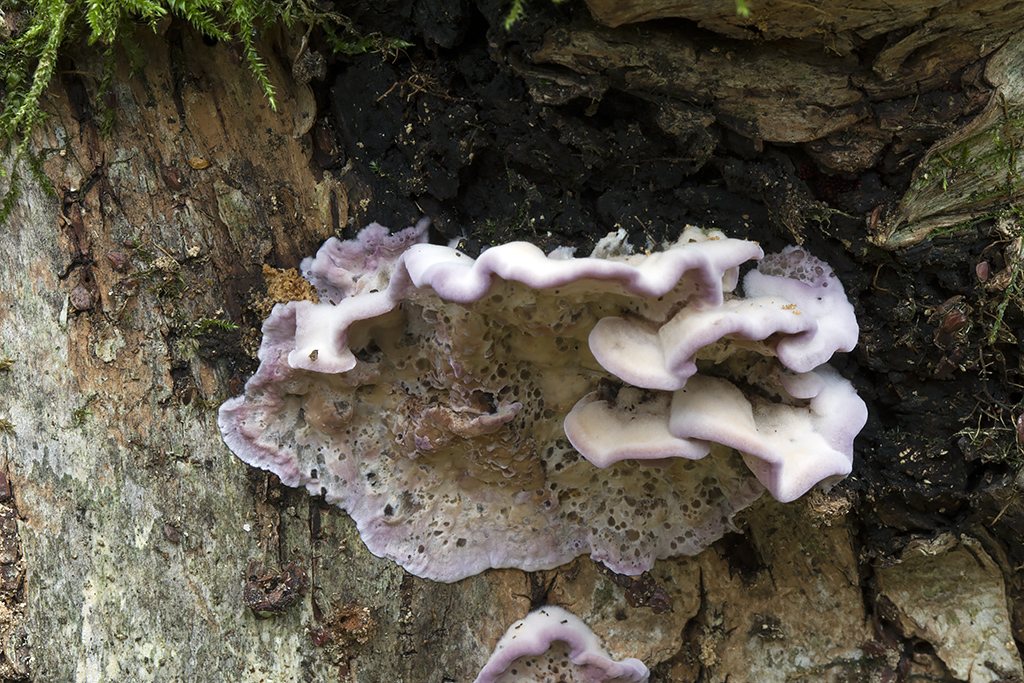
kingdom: Fungi
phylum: Basidiomycota
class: Agaricomycetes
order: Agaricales
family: Cyphellaceae
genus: Chondrostereum
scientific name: Chondrostereum purpureum
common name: purpurlædersvamp
